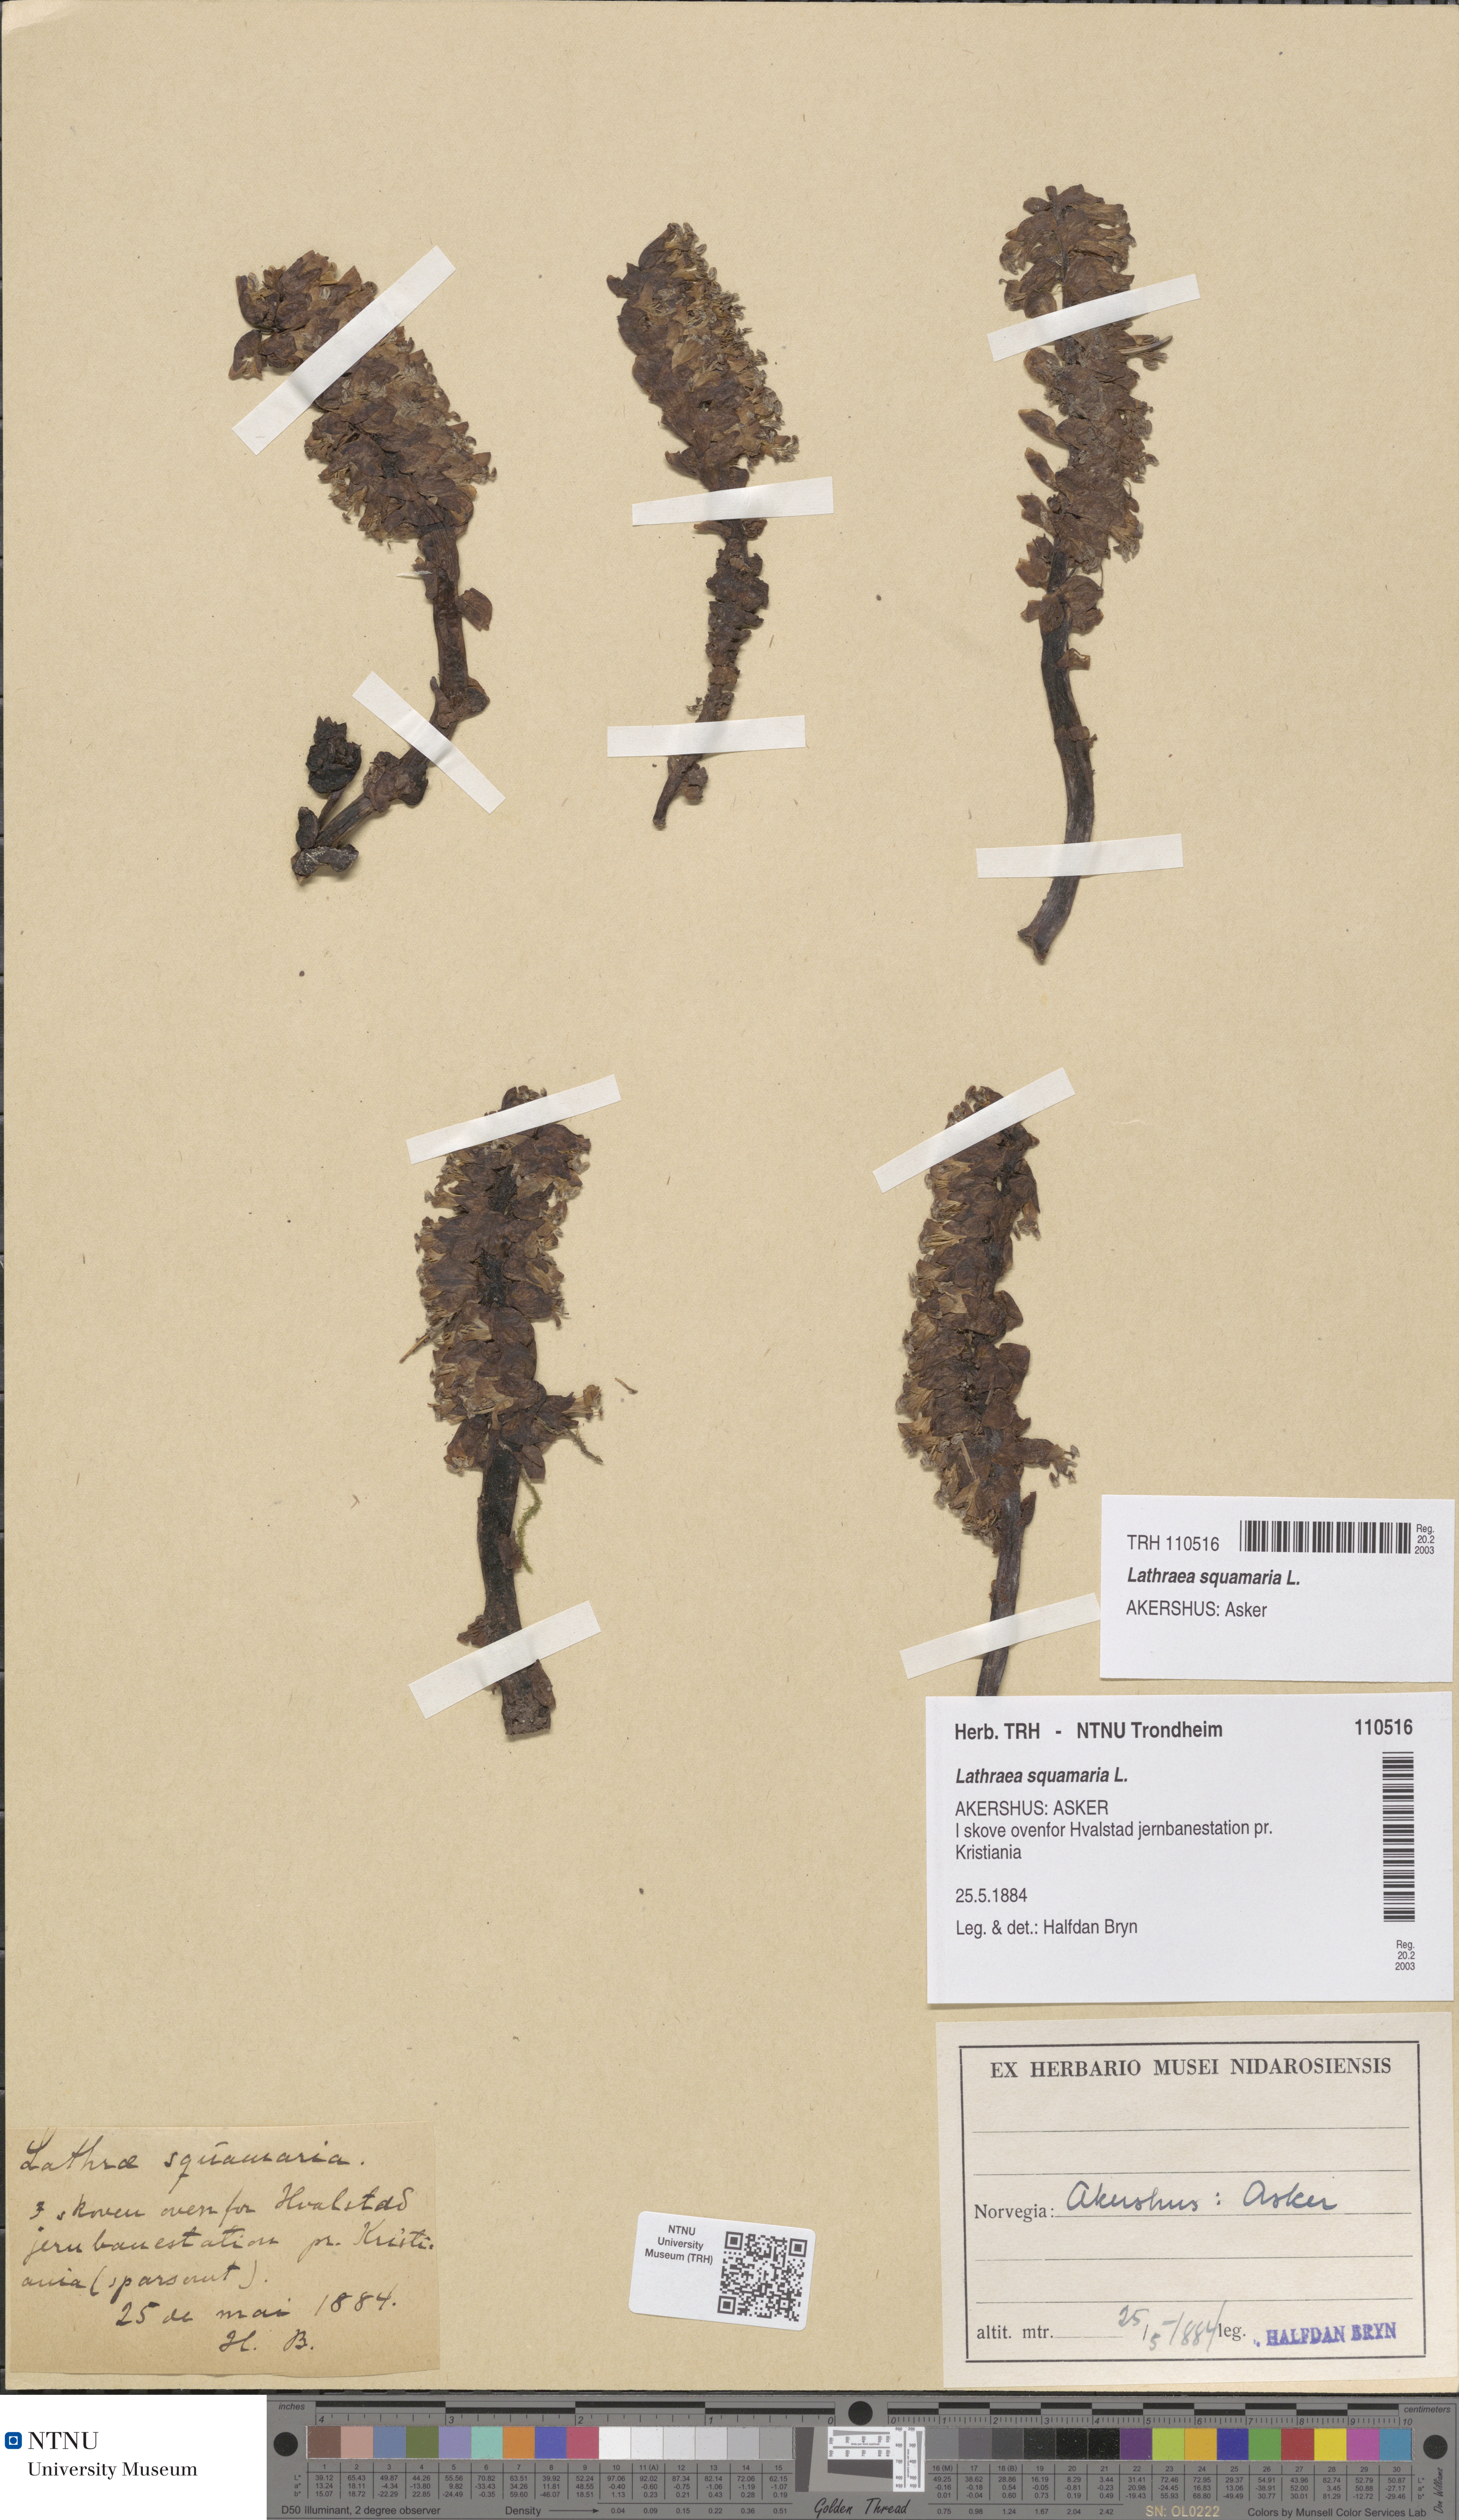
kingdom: Plantae
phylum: Tracheophyta
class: Magnoliopsida
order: Lamiales
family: Orobanchaceae
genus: Lathraea
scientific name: Lathraea squamaria
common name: Toothwort
